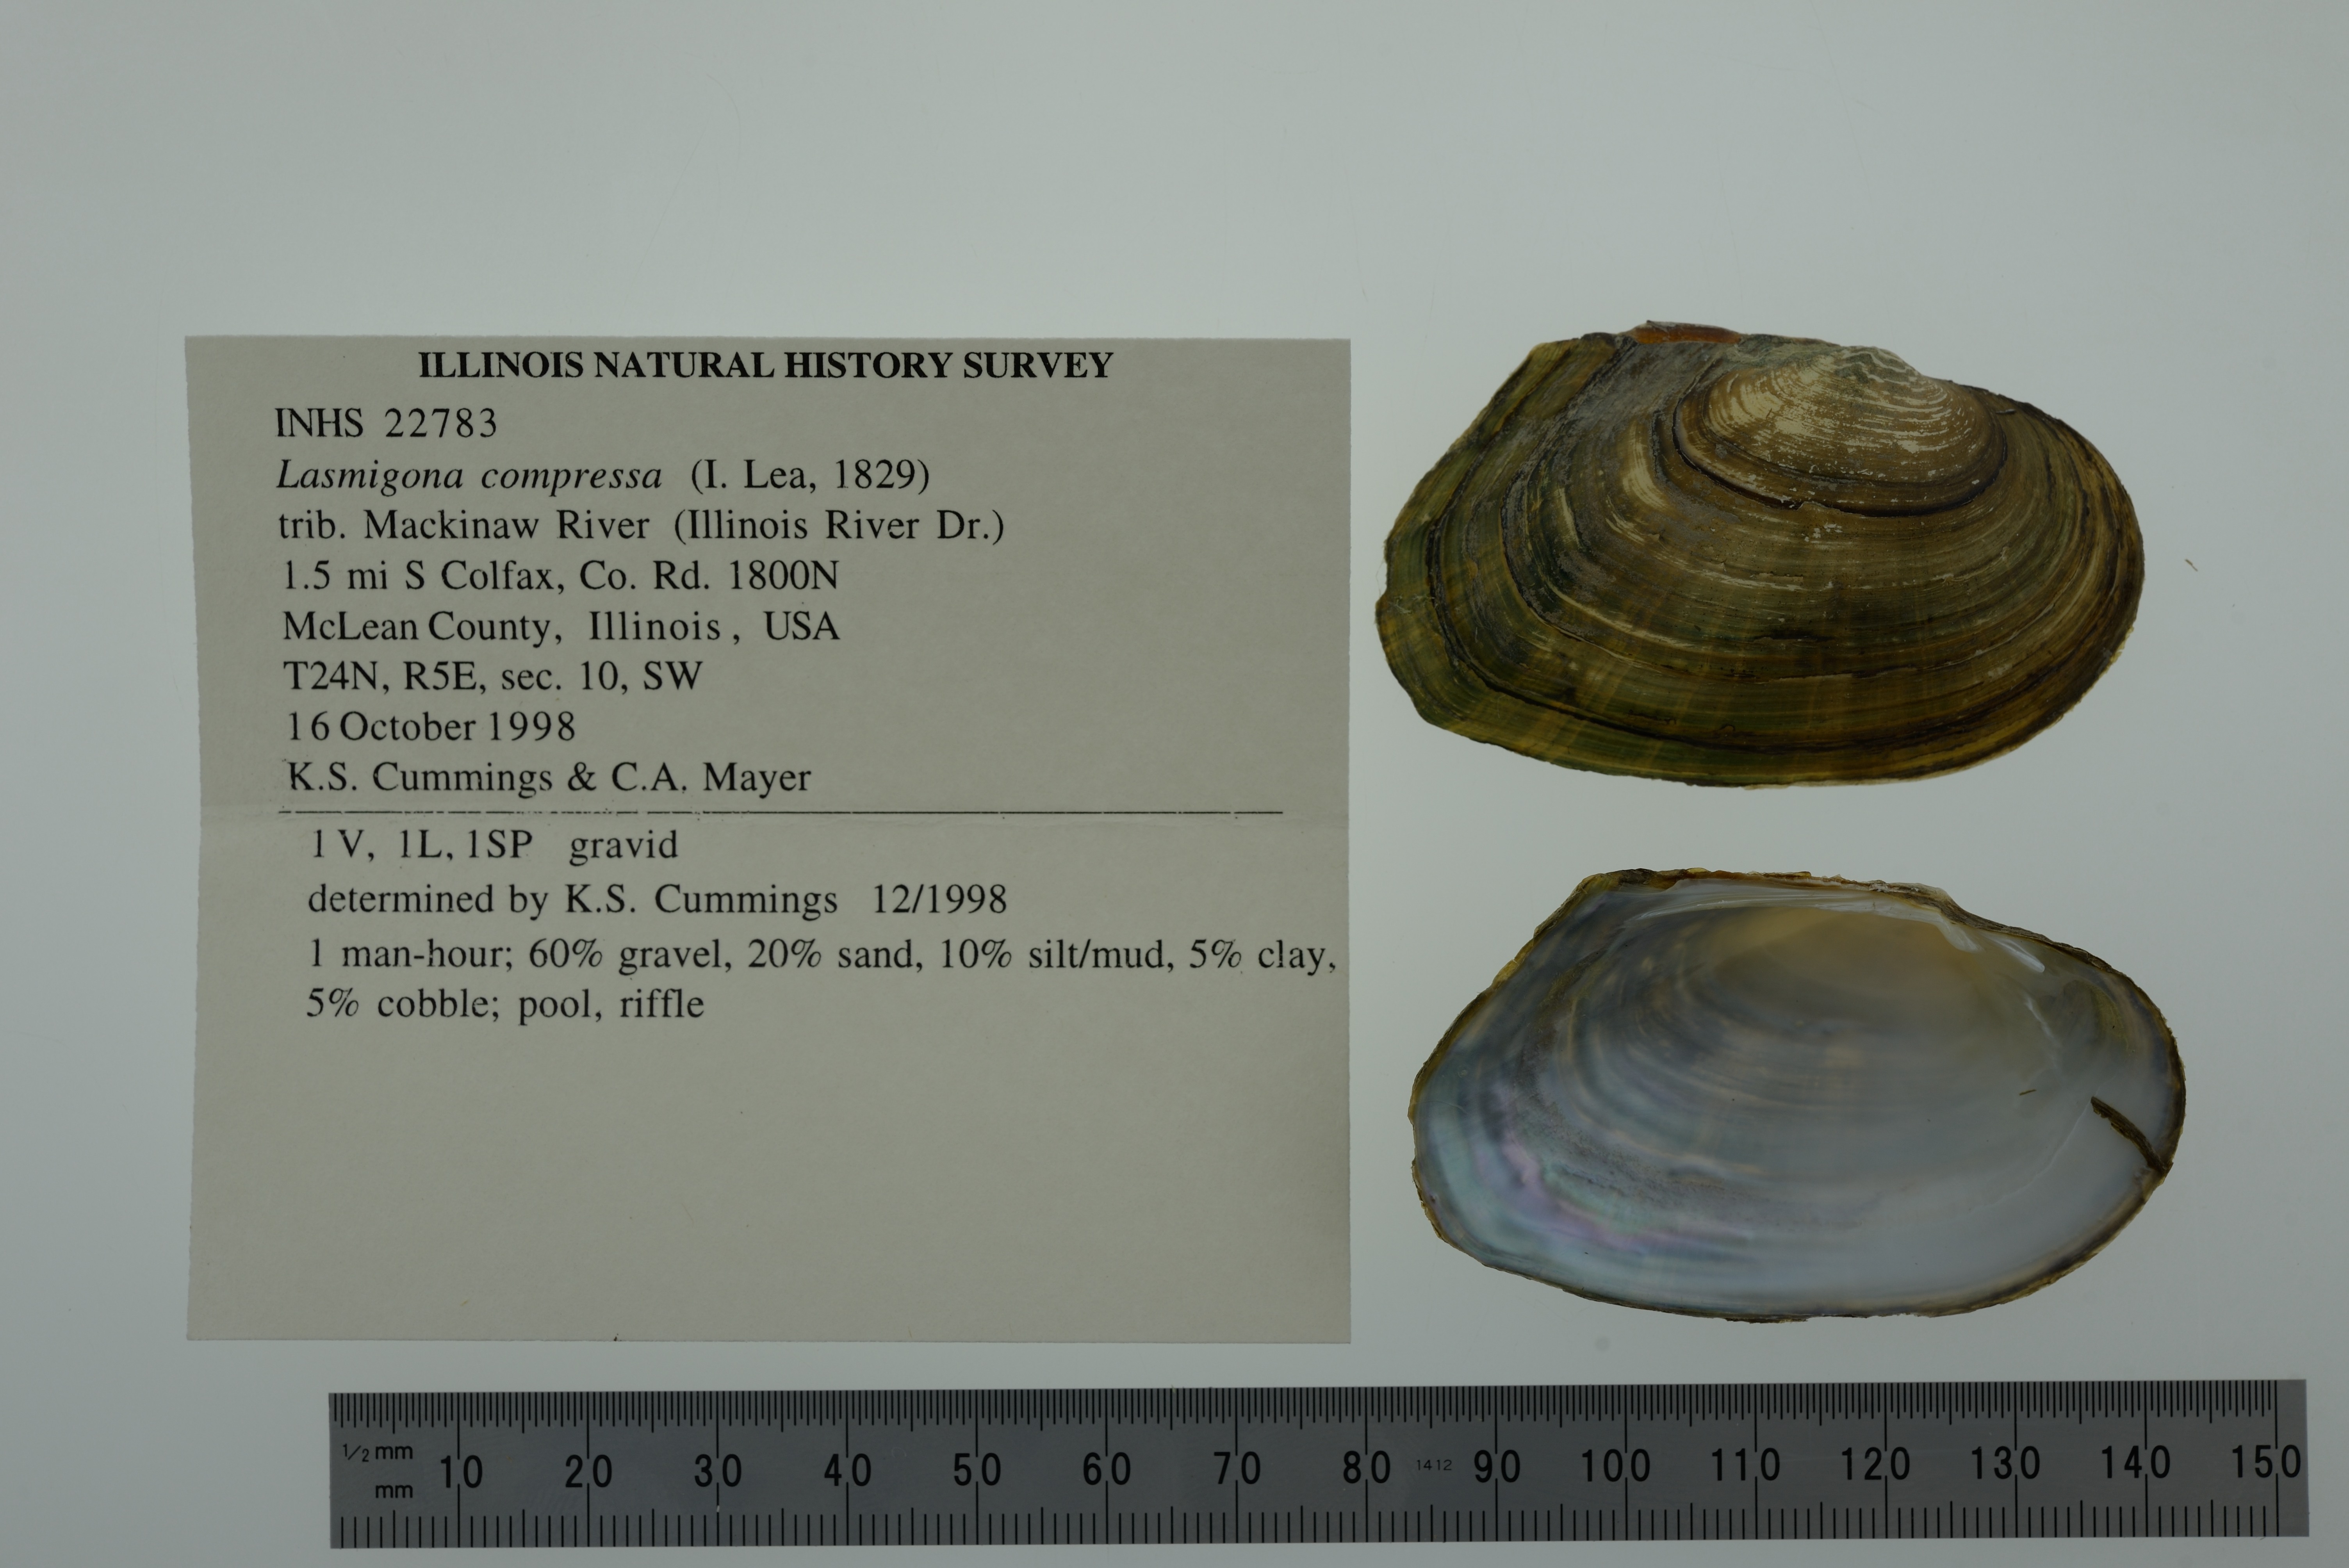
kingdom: Animalia
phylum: Mollusca
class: Bivalvia
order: Unionida
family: Unionidae
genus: Lasmigona
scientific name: Lasmigona compressa
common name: Creek heelsplitter
